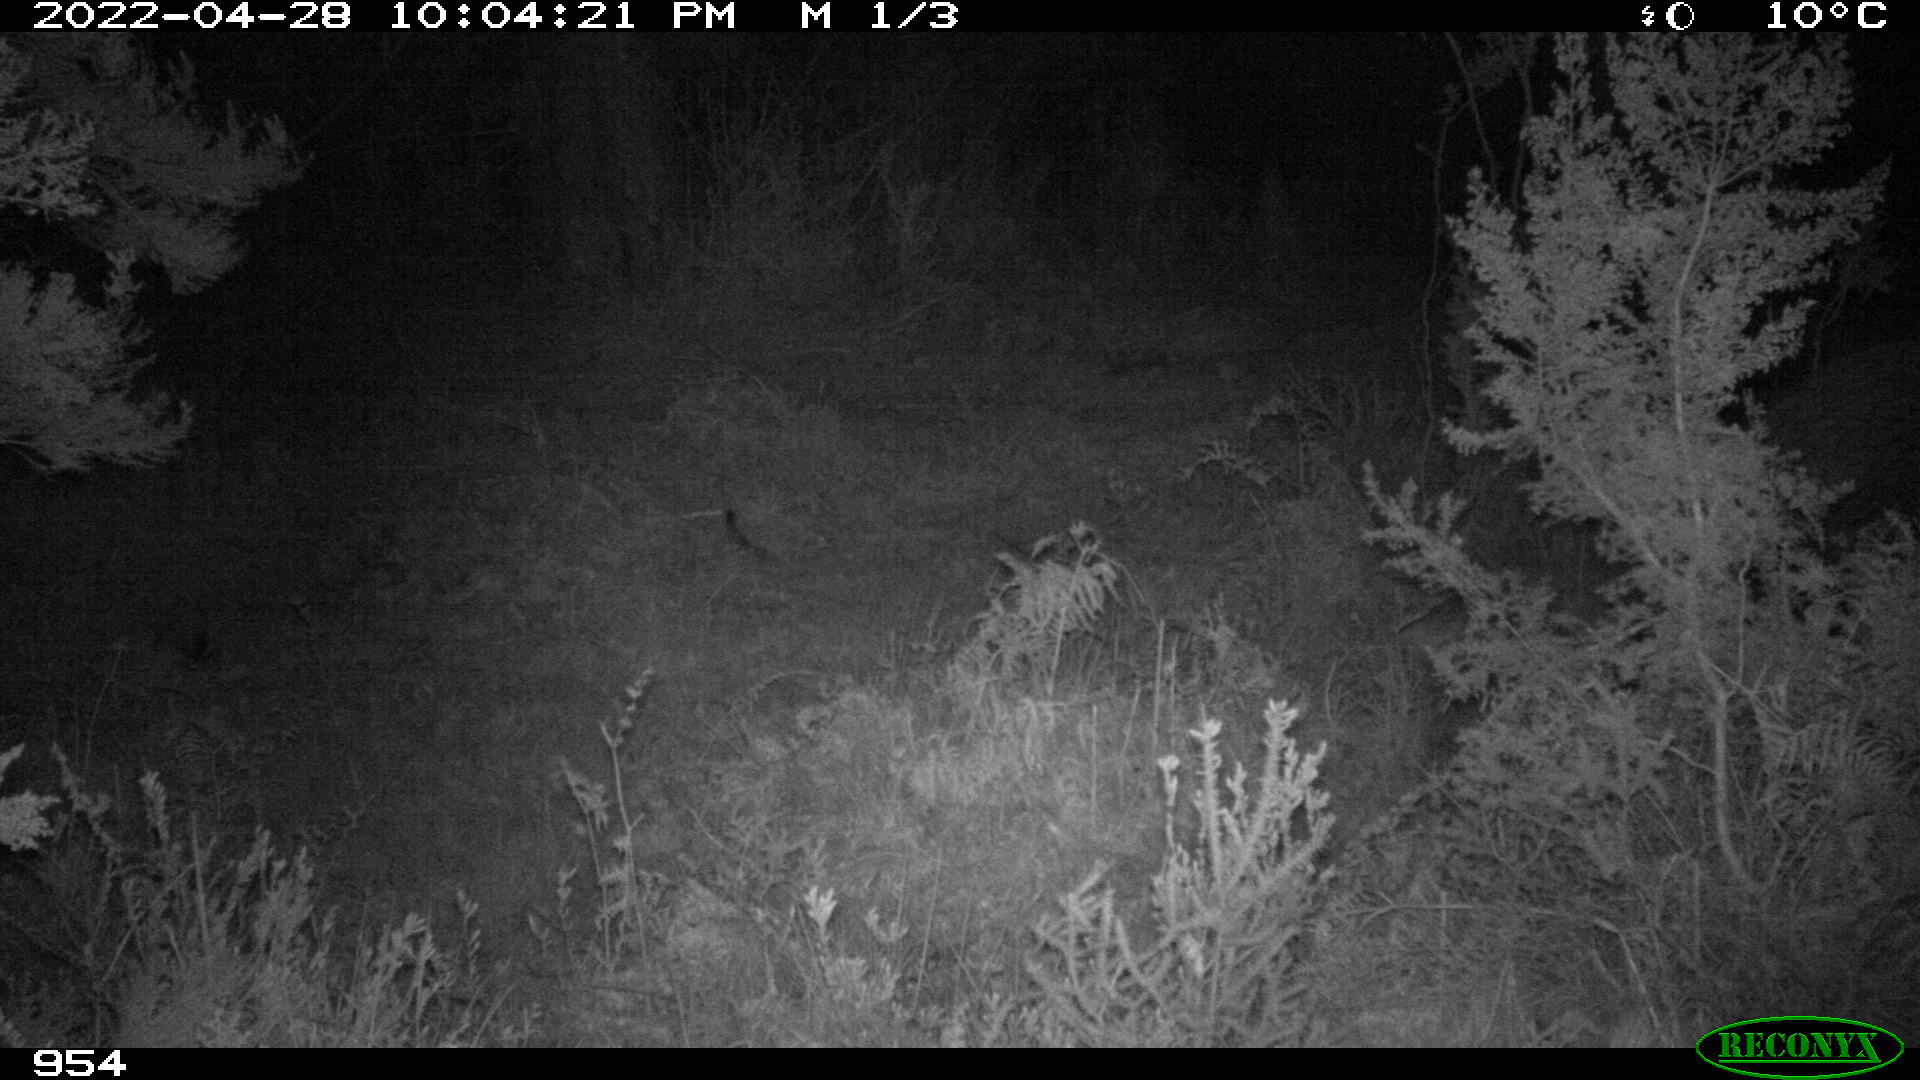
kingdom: Animalia
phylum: Chordata
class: Mammalia
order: Artiodactyla
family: Suidae
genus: Sus
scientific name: Sus scrofa
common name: Wild boar
